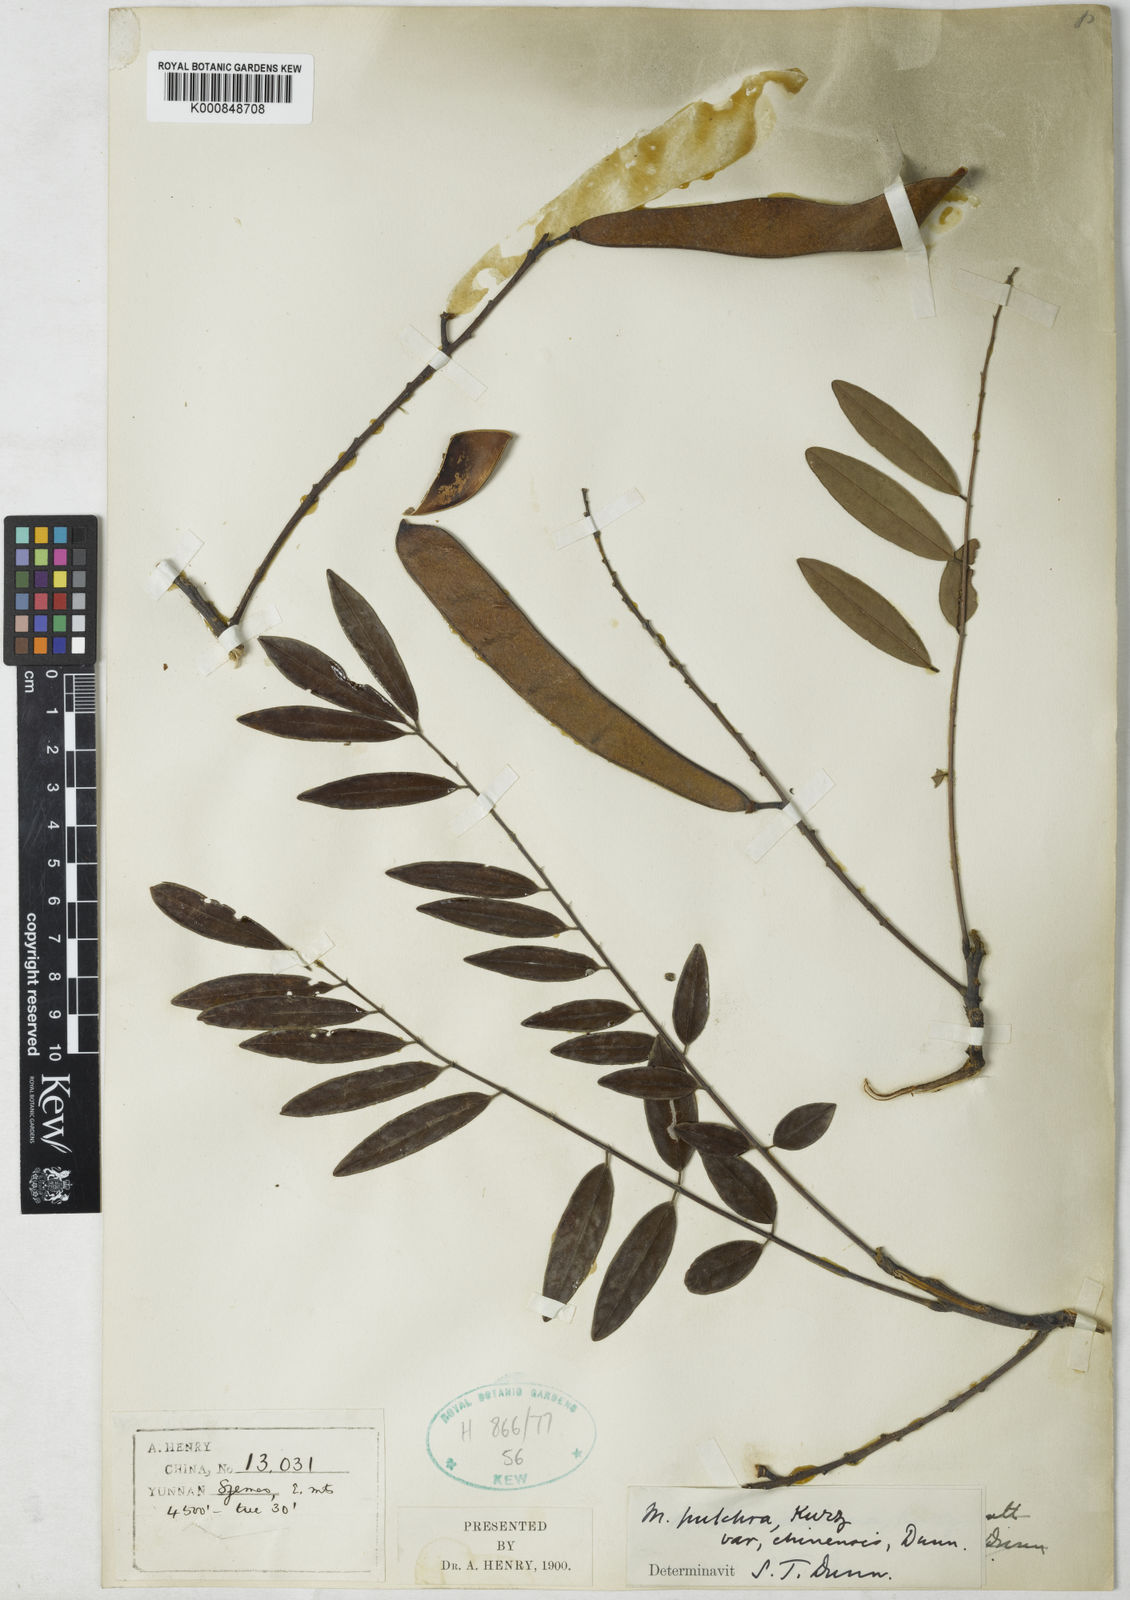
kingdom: Plantae
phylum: Tracheophyta
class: Magnoliopsida
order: Fabales
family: Fabaceae
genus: Millettia
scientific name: Millettia pulchra
